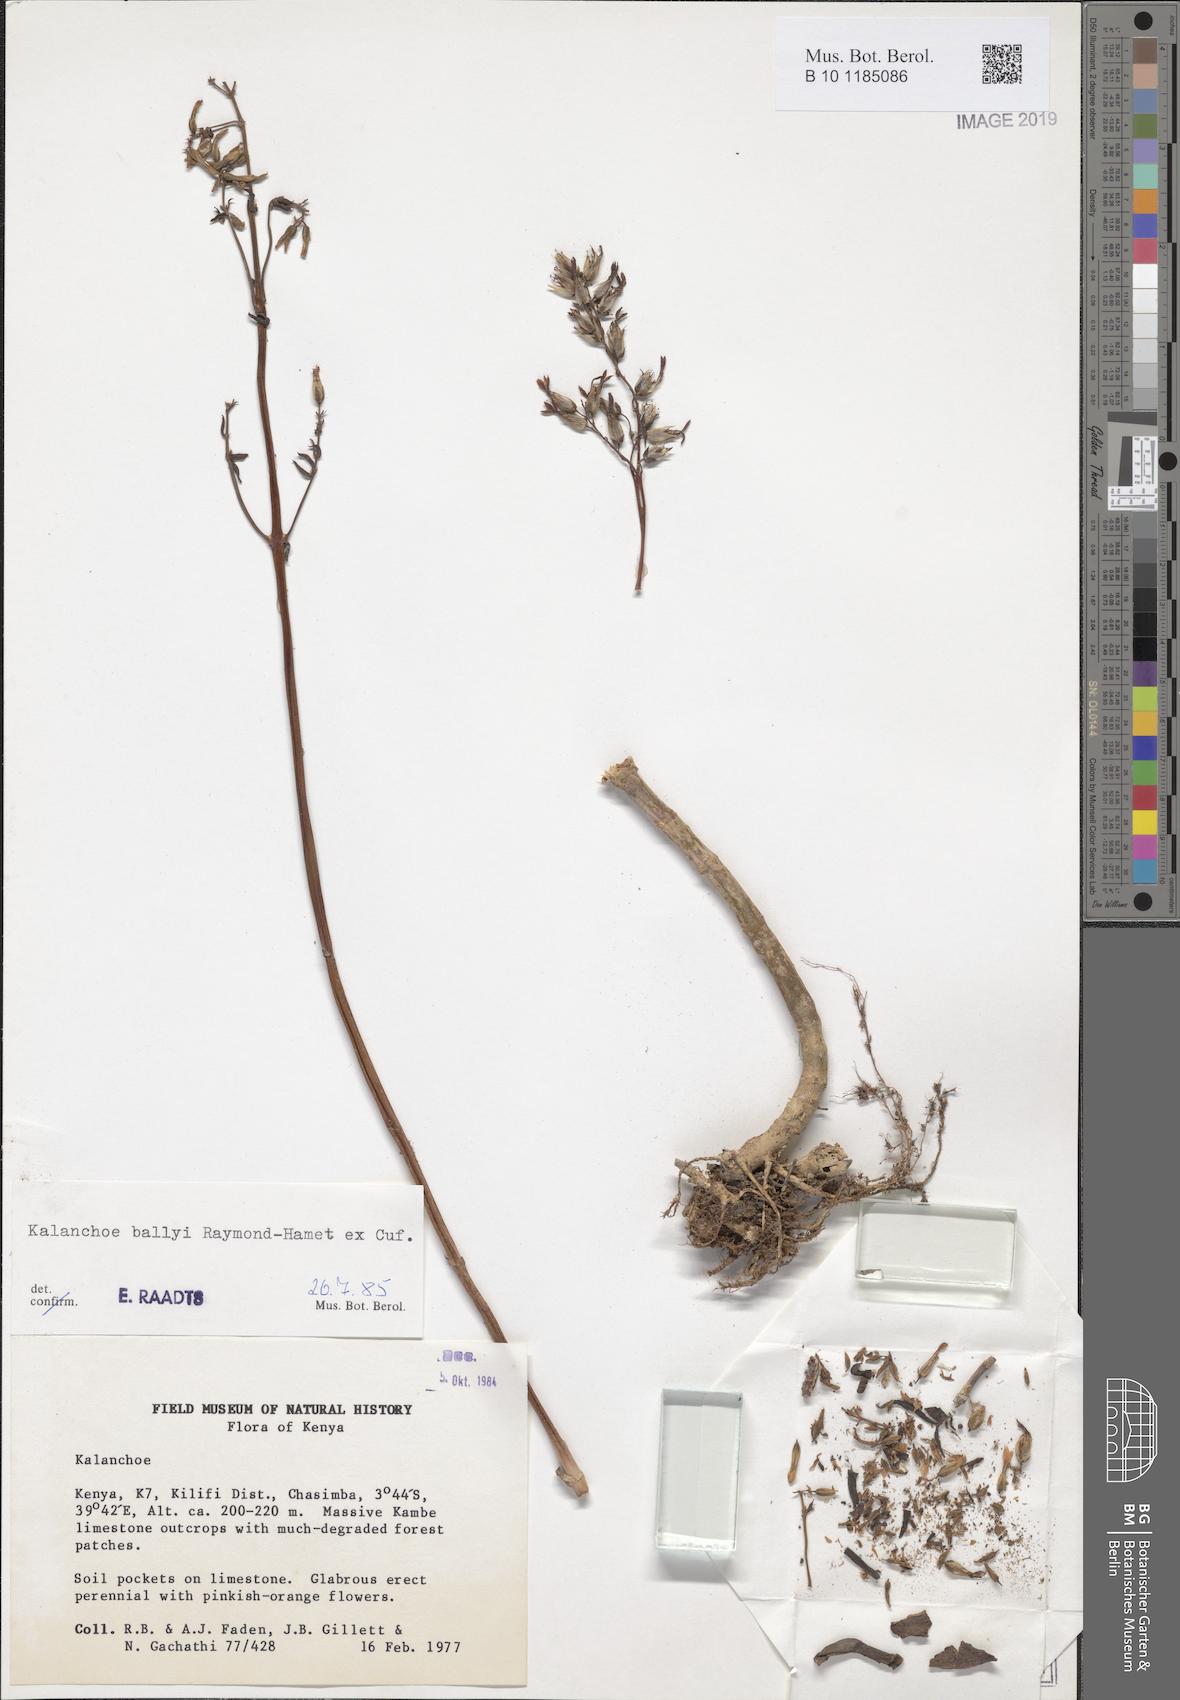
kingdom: Plantae
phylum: Tracheophyta
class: Magnoliopsida
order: Saxifragales
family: Crassulaceae
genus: Kalanchoe
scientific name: Kalanchoe ballyi
